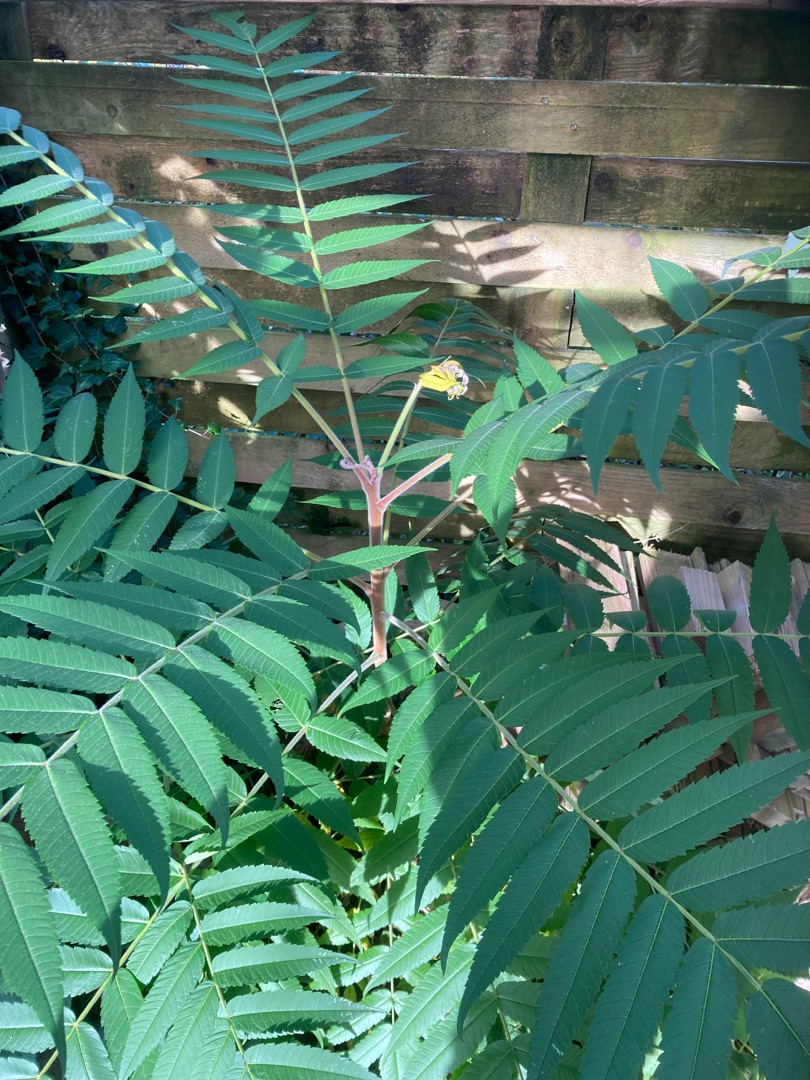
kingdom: Plantae
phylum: Tracheophyta
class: Magnoliopsida
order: Sapindales
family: Anacardiaceae
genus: Rhus
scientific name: Rhus typhina
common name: Hjortetaktræ
